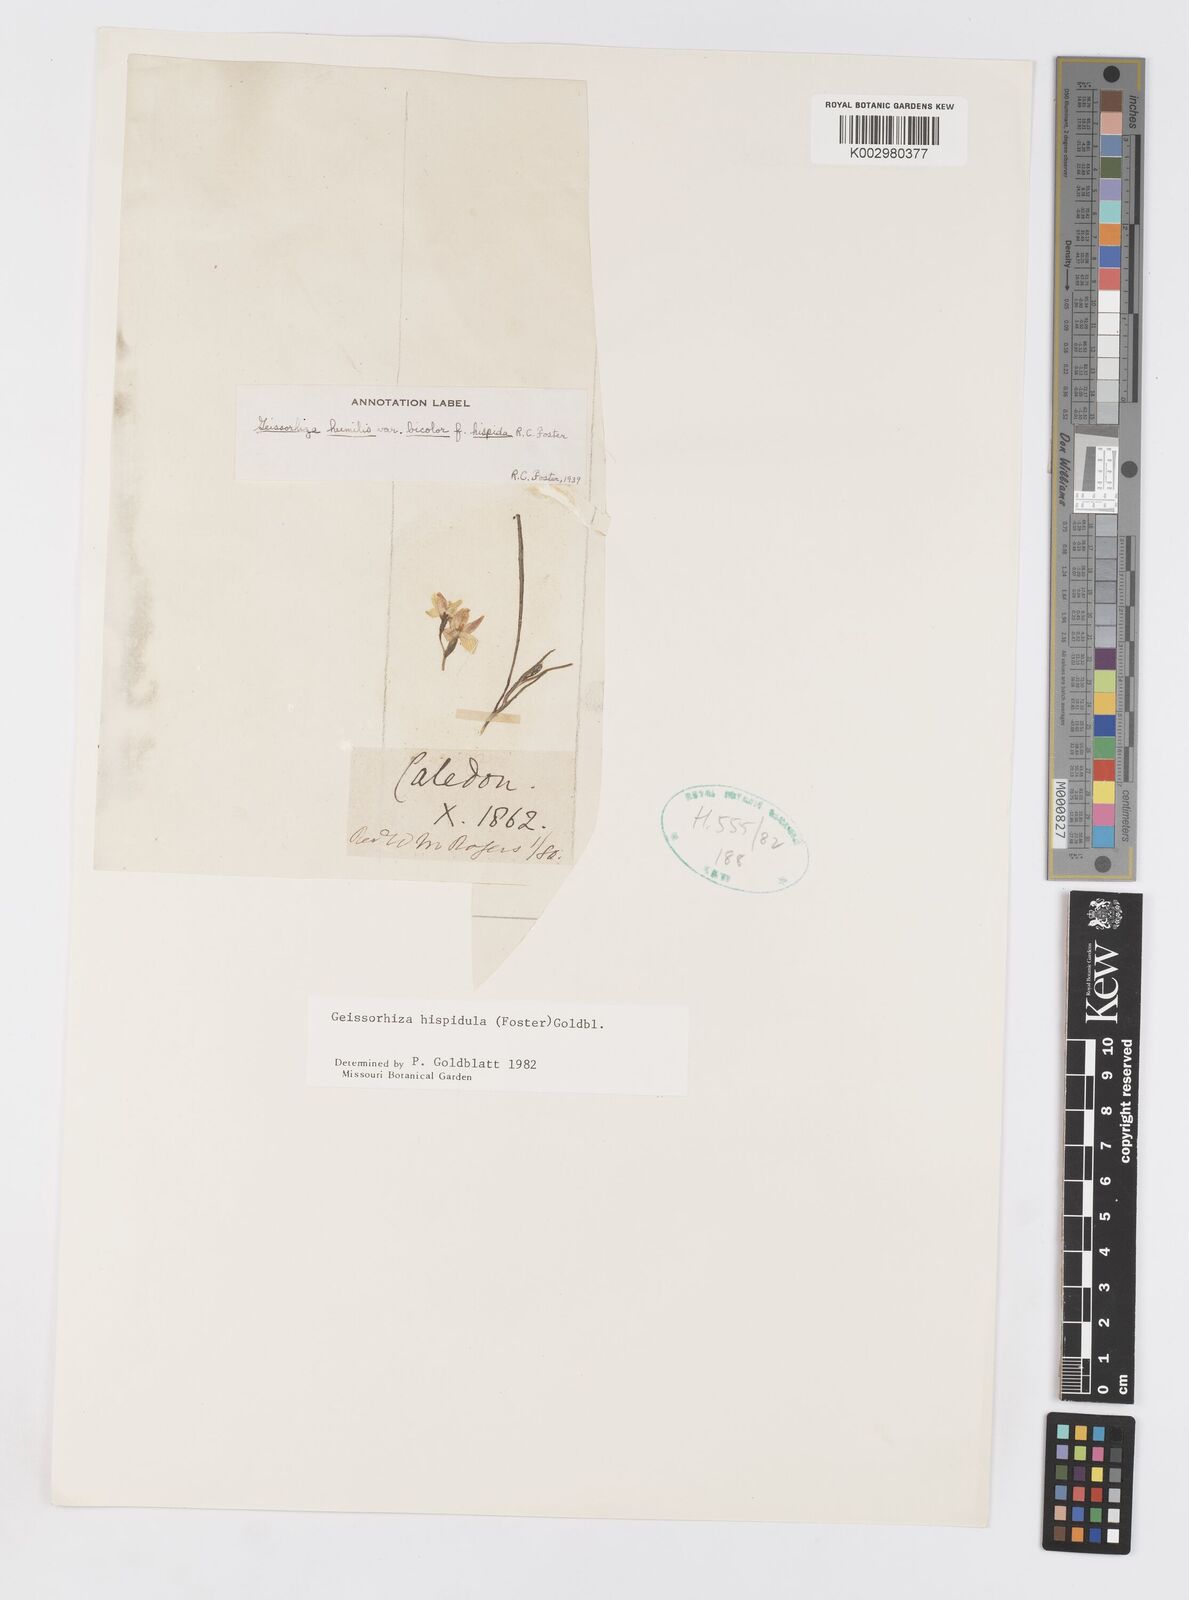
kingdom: Plantae
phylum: Tracheophyta
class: Liliopsida
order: Asparagales
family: Iridaceae
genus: Geissorhiza
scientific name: Geissorhiza hispidula
